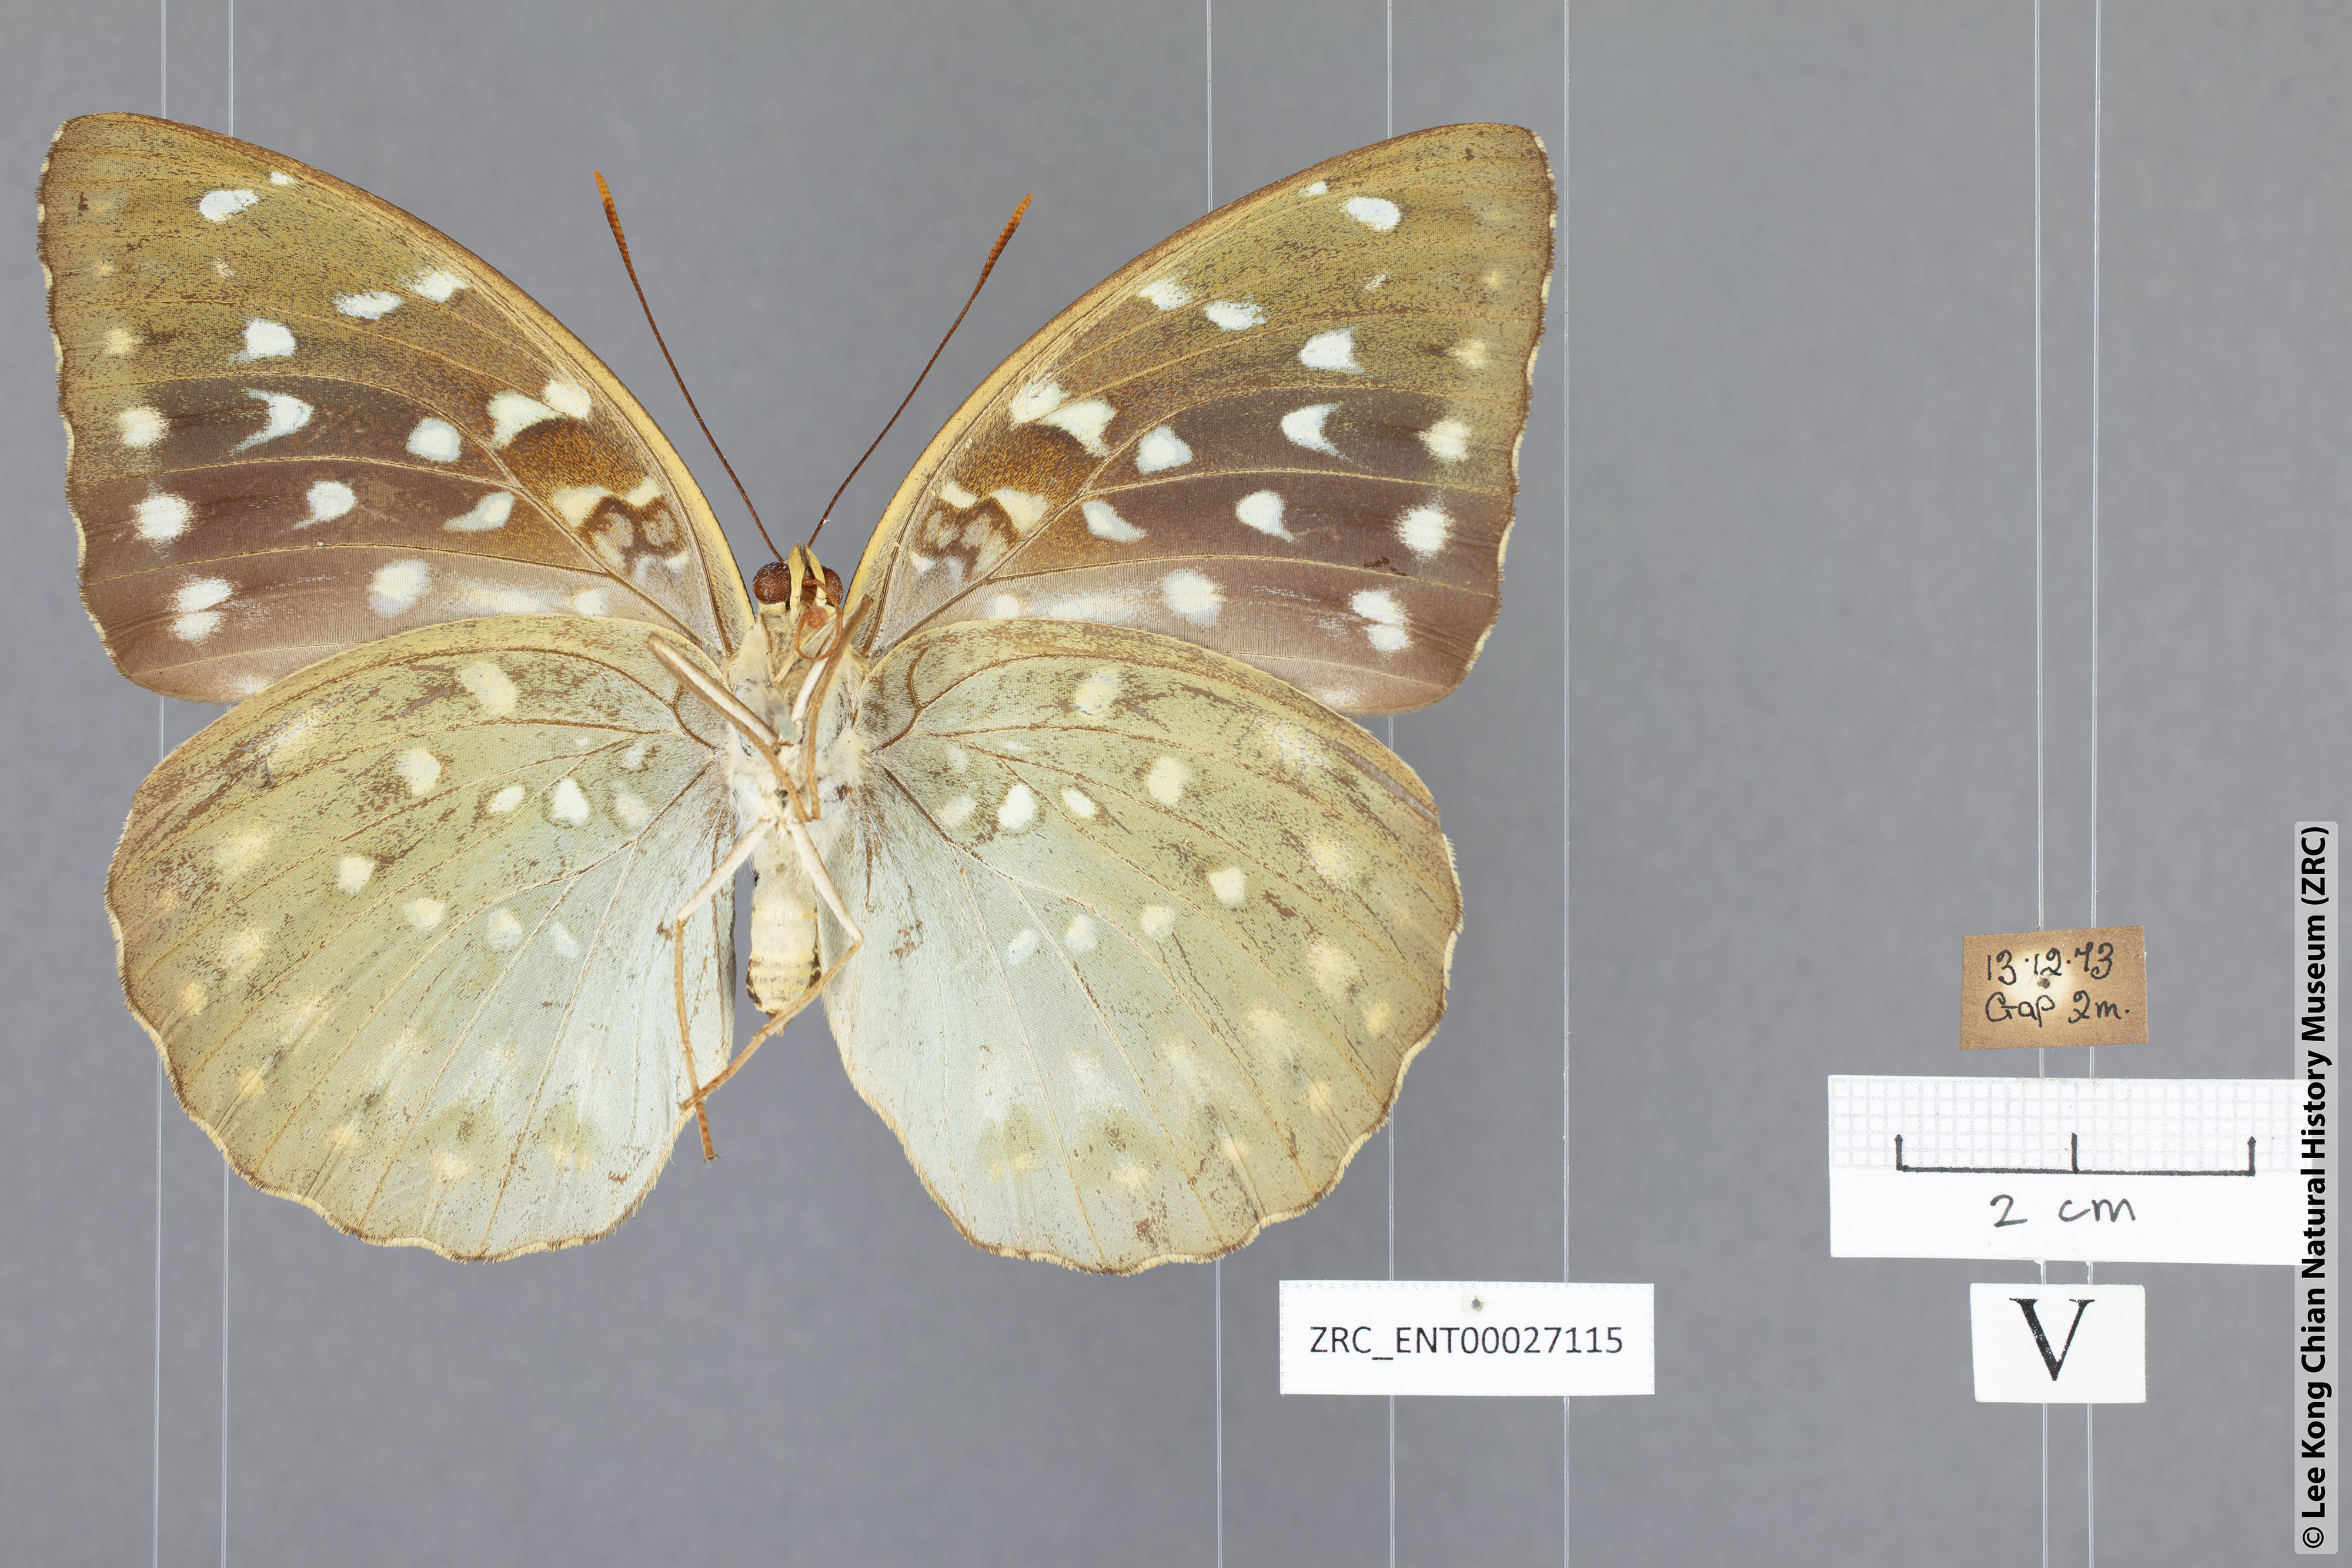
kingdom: Animalia
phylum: Arthropoda
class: Insecta
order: Lepidoptera
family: Nymphalidae
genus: Lexias
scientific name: Lexias pardalis
